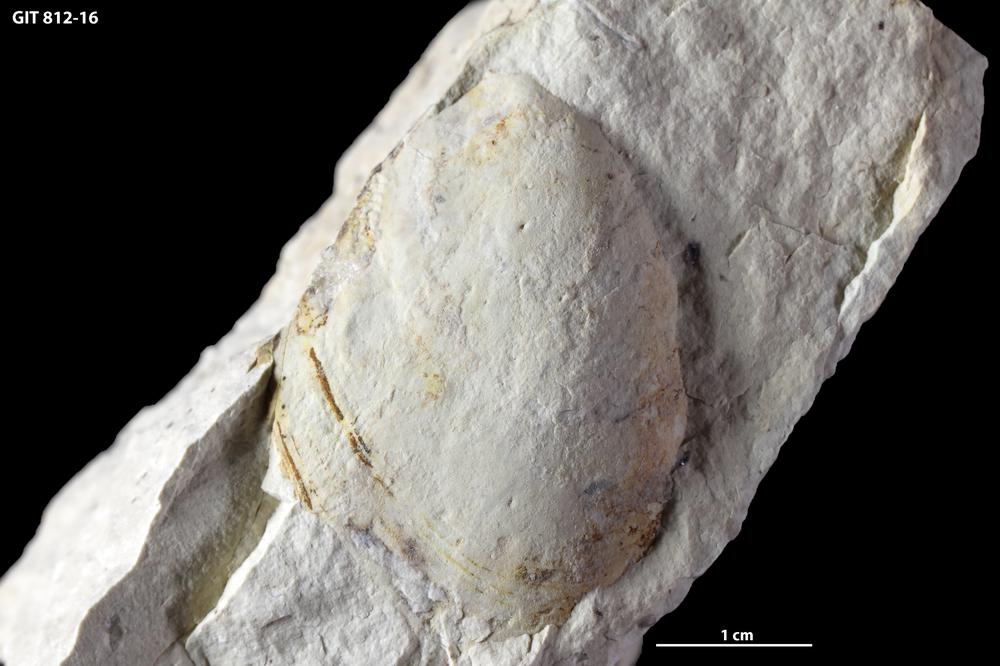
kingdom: Animalia
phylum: Mollusca
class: Bivalvia
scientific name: Bivalvia
